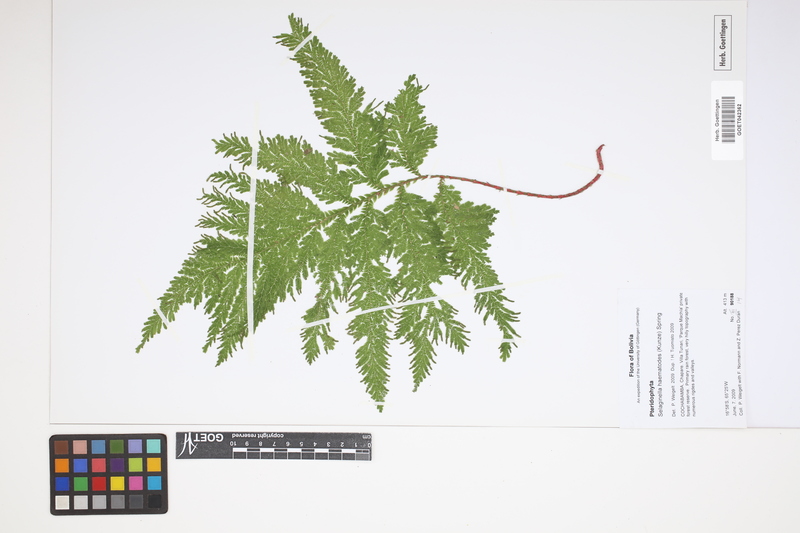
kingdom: Plantae
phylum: Tracheophyta
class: Lycopodiopsida
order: Selaginellales
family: Selaginellaceae
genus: Selaginella
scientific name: Selaginella haematodes
